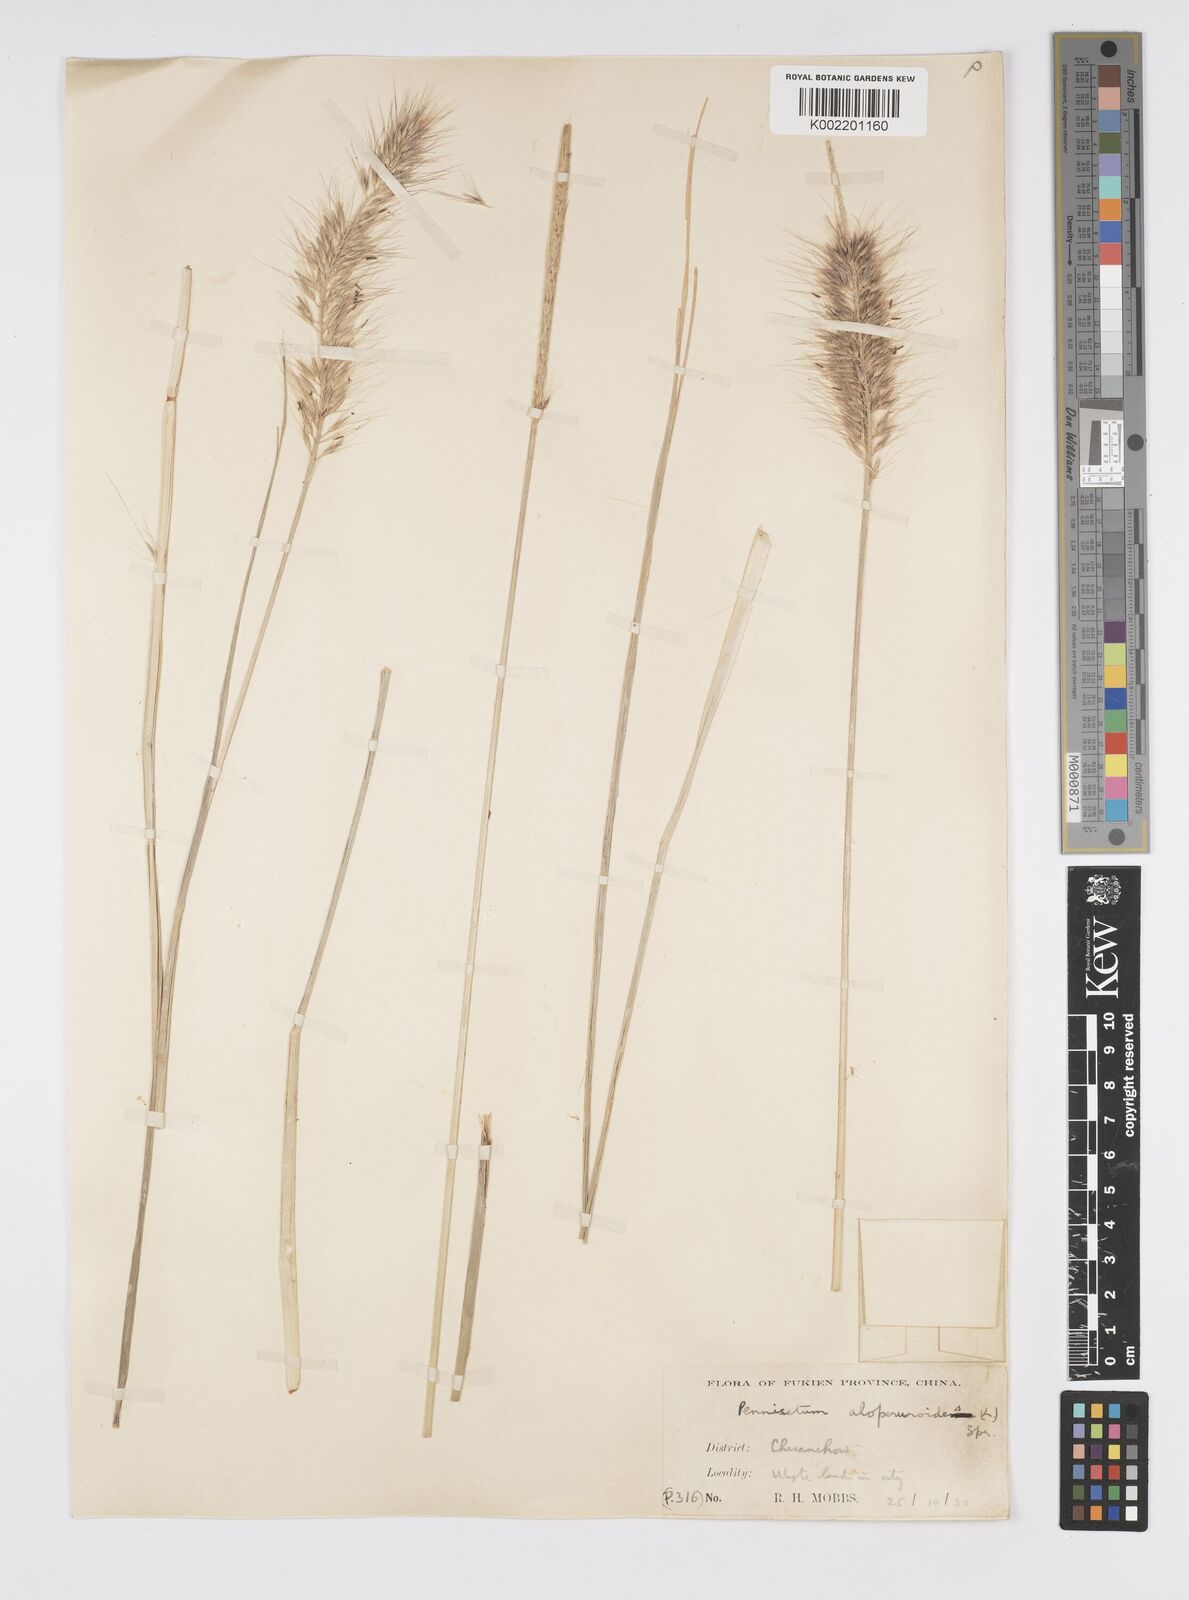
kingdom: Plantae
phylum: Tracheophyta
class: Liliopsida
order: Poales
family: Poaceae
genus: Cenchrus
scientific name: Cenchrus alopecuroides
